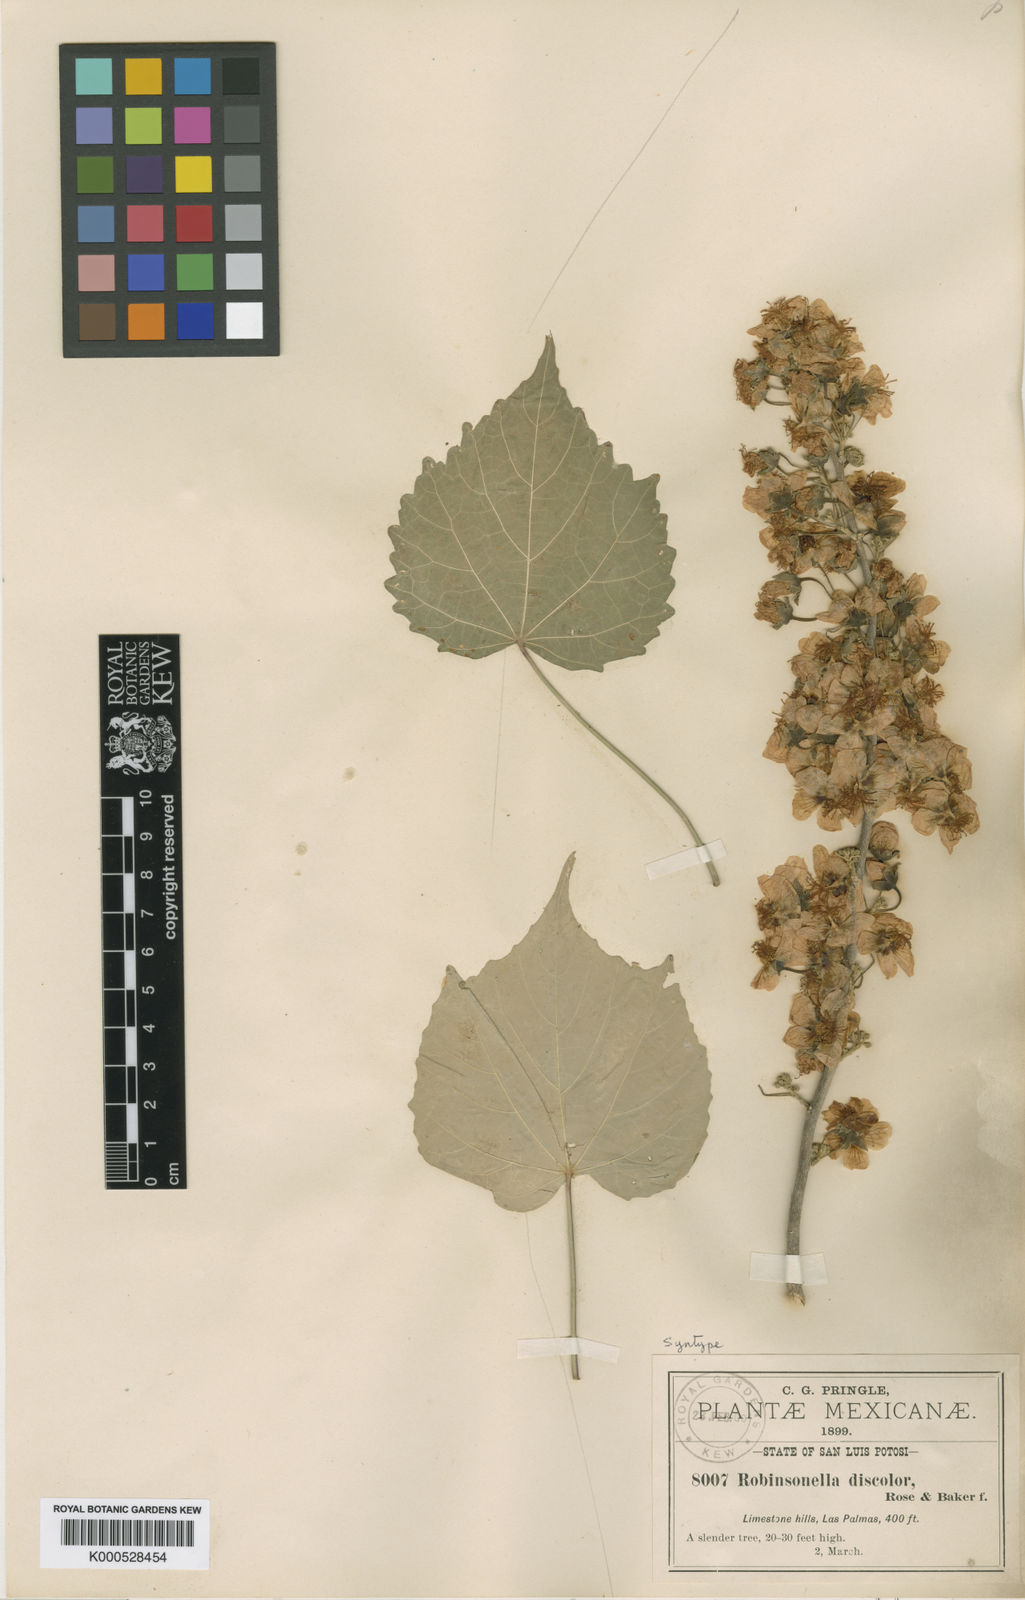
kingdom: Plantae
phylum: Tracheophyta
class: Magnoliopsida
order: Malvales
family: Malvaceae
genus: Robinsonella
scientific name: Robinsonella discolor
